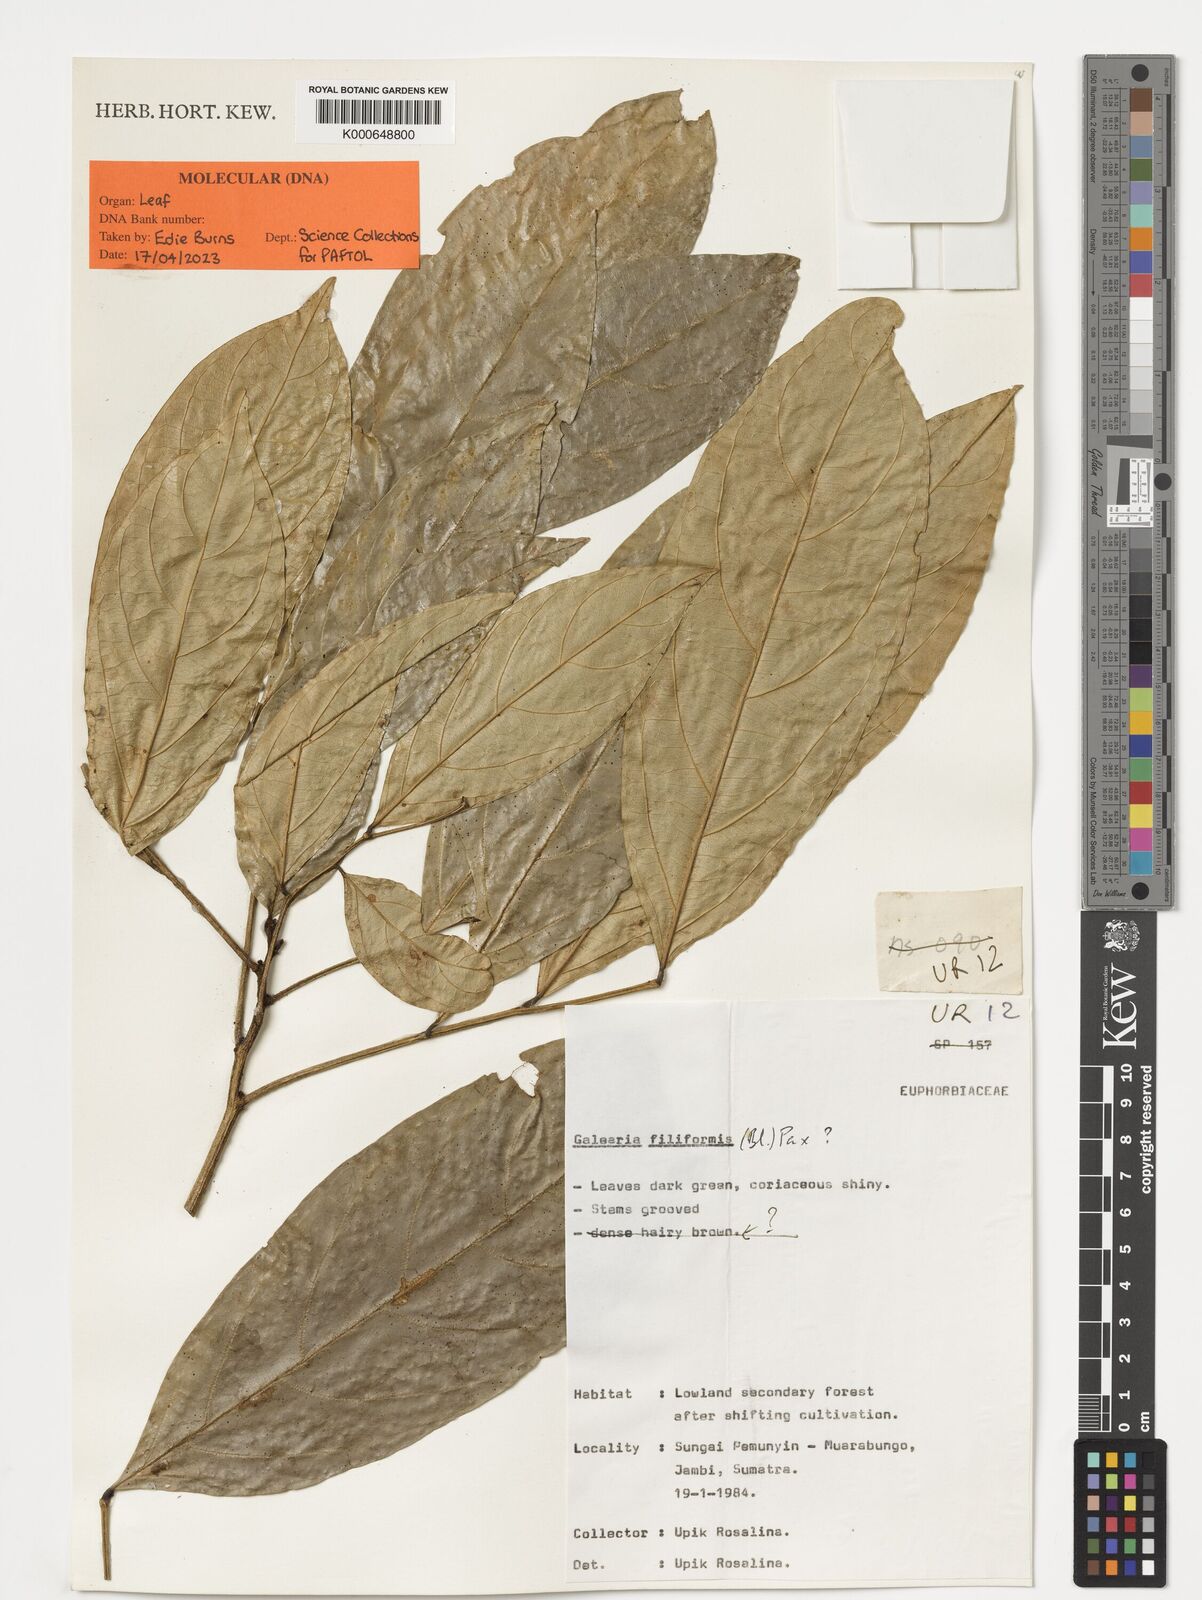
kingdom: Plantae
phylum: Tracheophyta
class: Magnoliopsida
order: Malpighiales
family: Pandaceae
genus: Galearia
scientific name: Galearia filiformis
